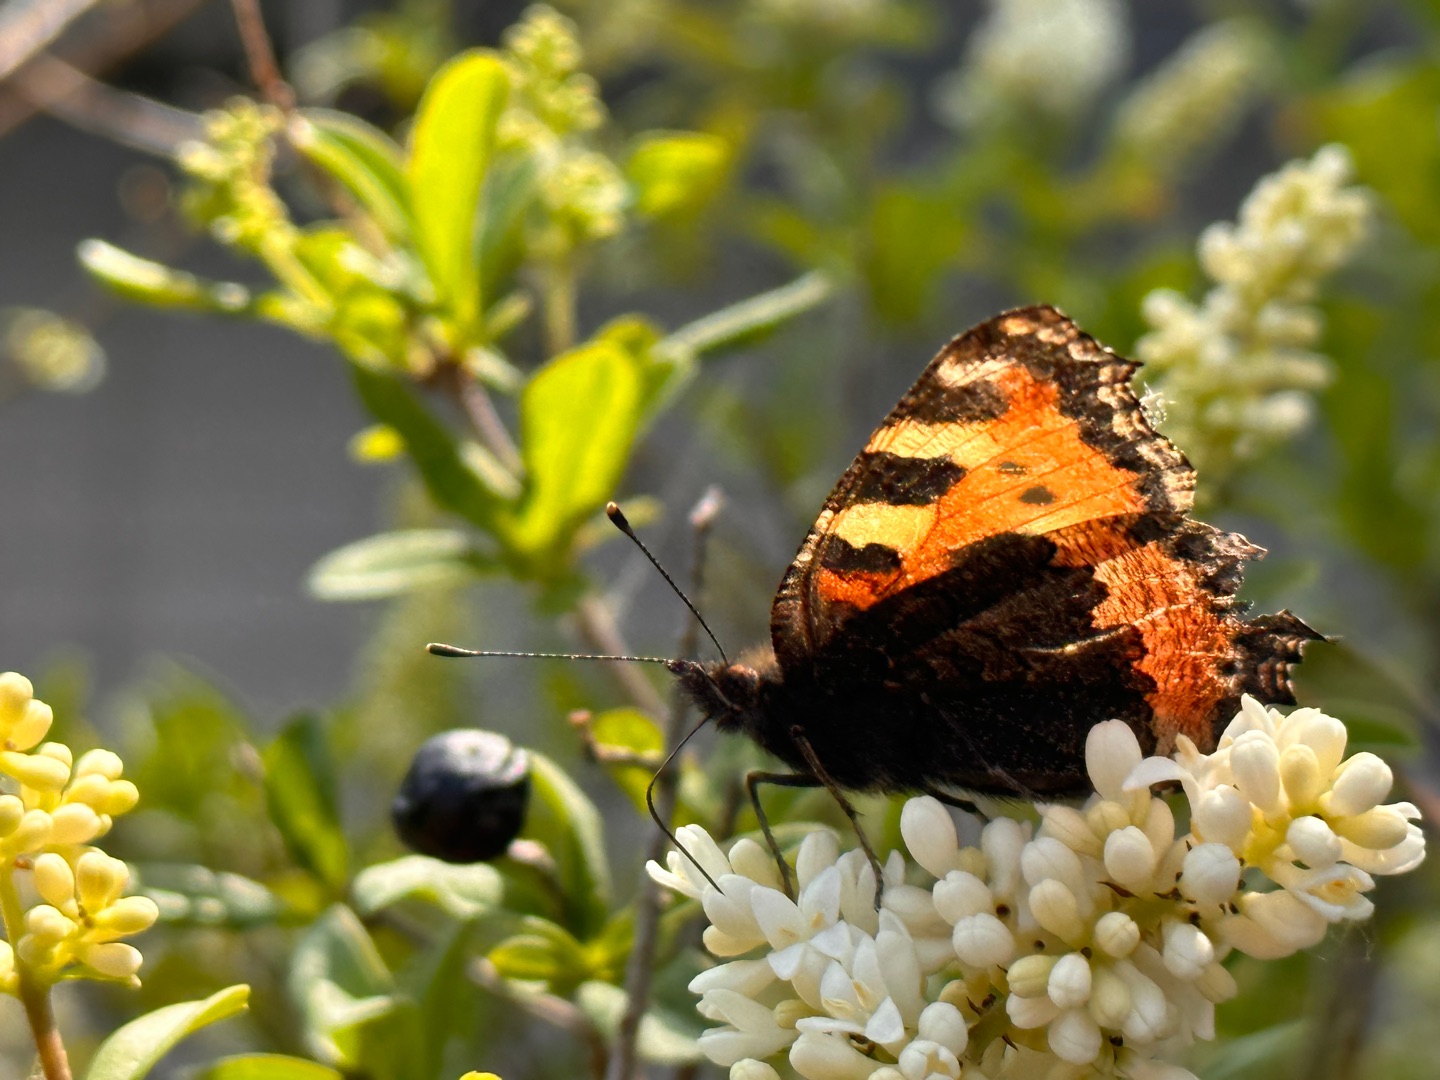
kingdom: Animalia
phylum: Arthropoda
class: Insecta
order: Lepidoptera
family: Nymphalidae
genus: Aglais
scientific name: Aglais urticae
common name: Nældens takvinge
